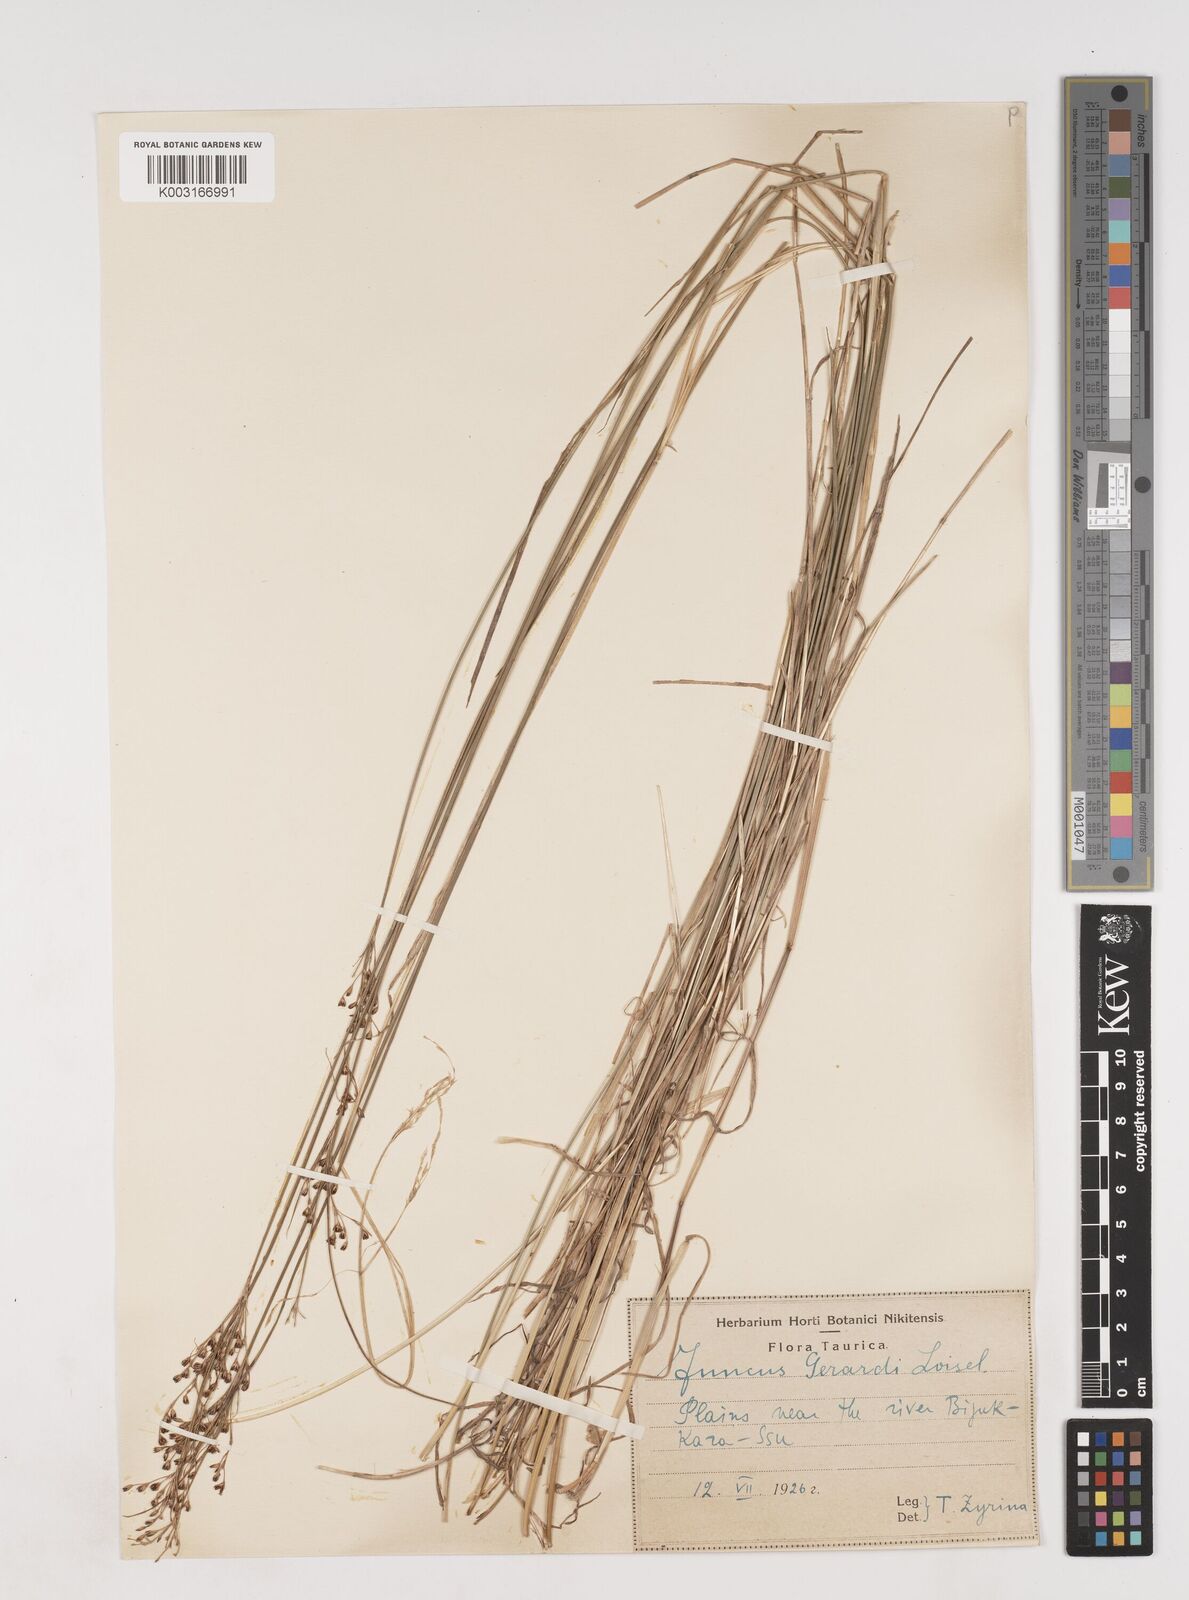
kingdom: Plantae
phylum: Tracheophyta
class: Liliopsida
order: Poales
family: Juncaceae
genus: Juncus
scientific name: Juncus
